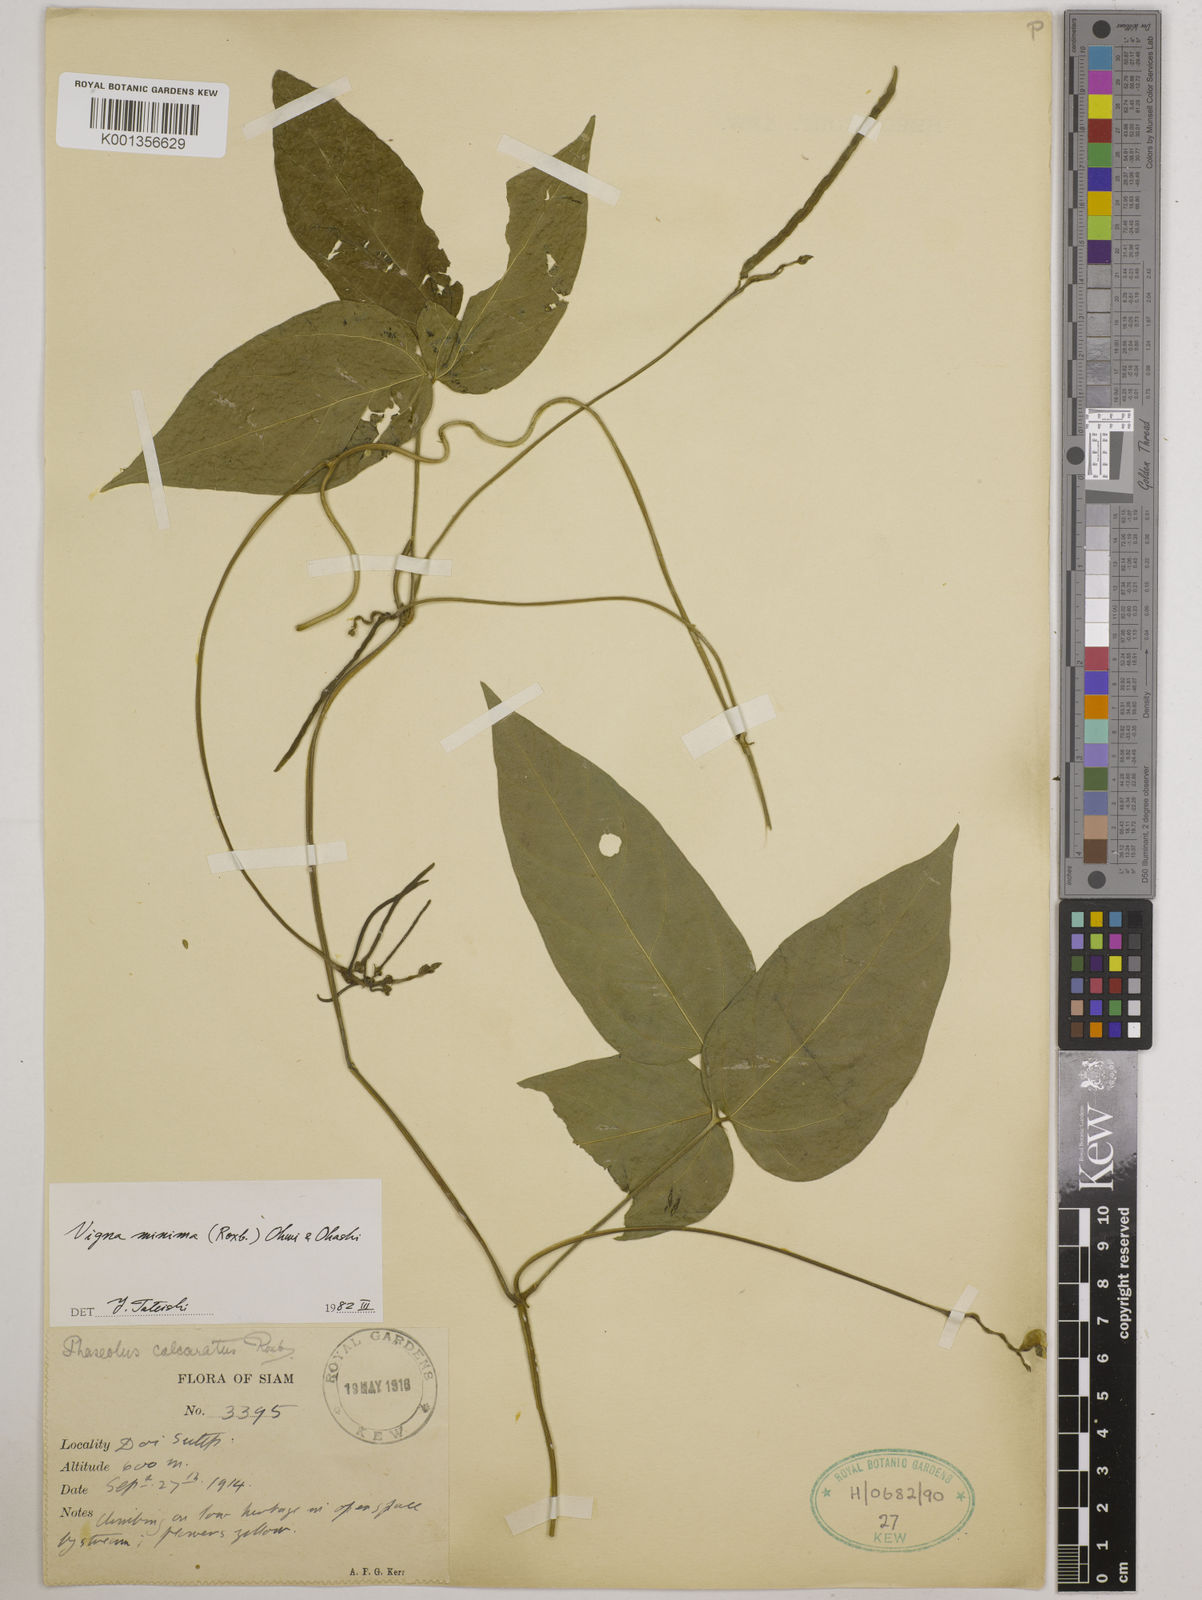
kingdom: Plantae
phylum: Tracheophyta
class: Magnoliopsida
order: Fabales
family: Fabaceae
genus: Vigna
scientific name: Vigna minima
